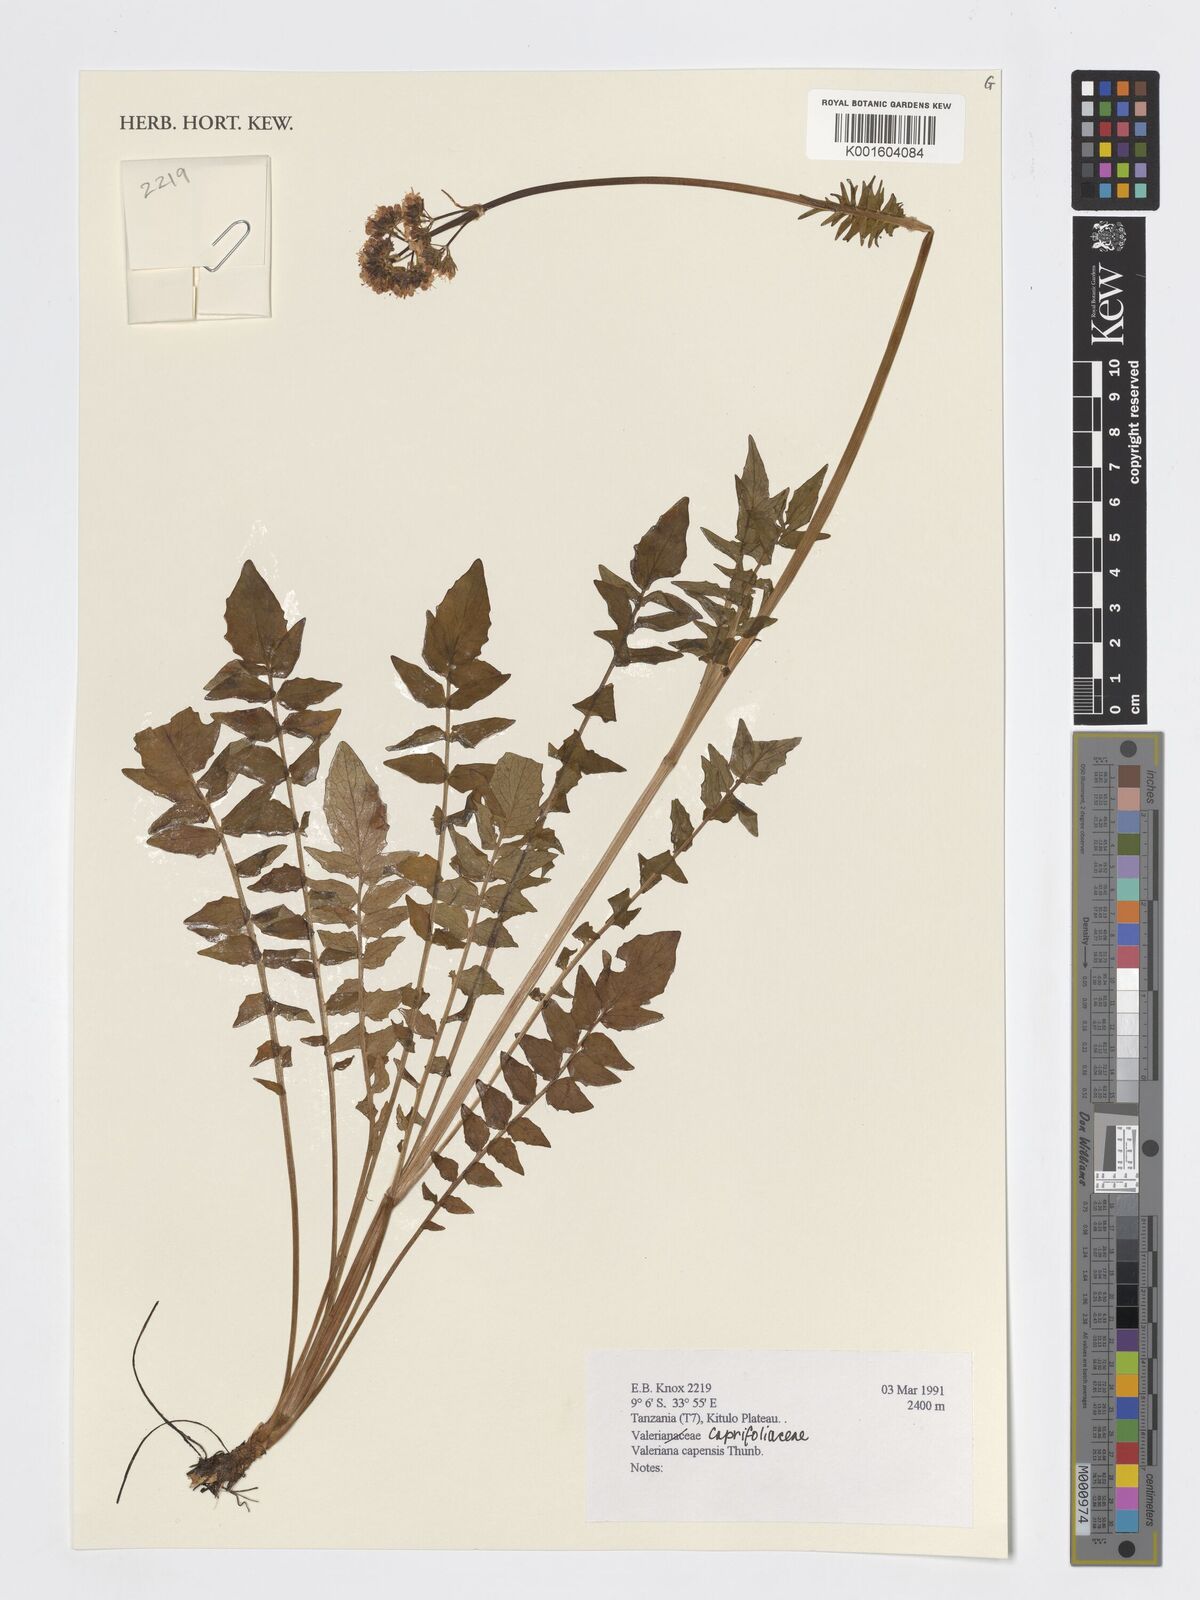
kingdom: Plantae
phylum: Tracheophyta
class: Magnoliopsida
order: Dipsacales
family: Caprifoliaceae
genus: Valeriana
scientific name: Valeriana capensis
